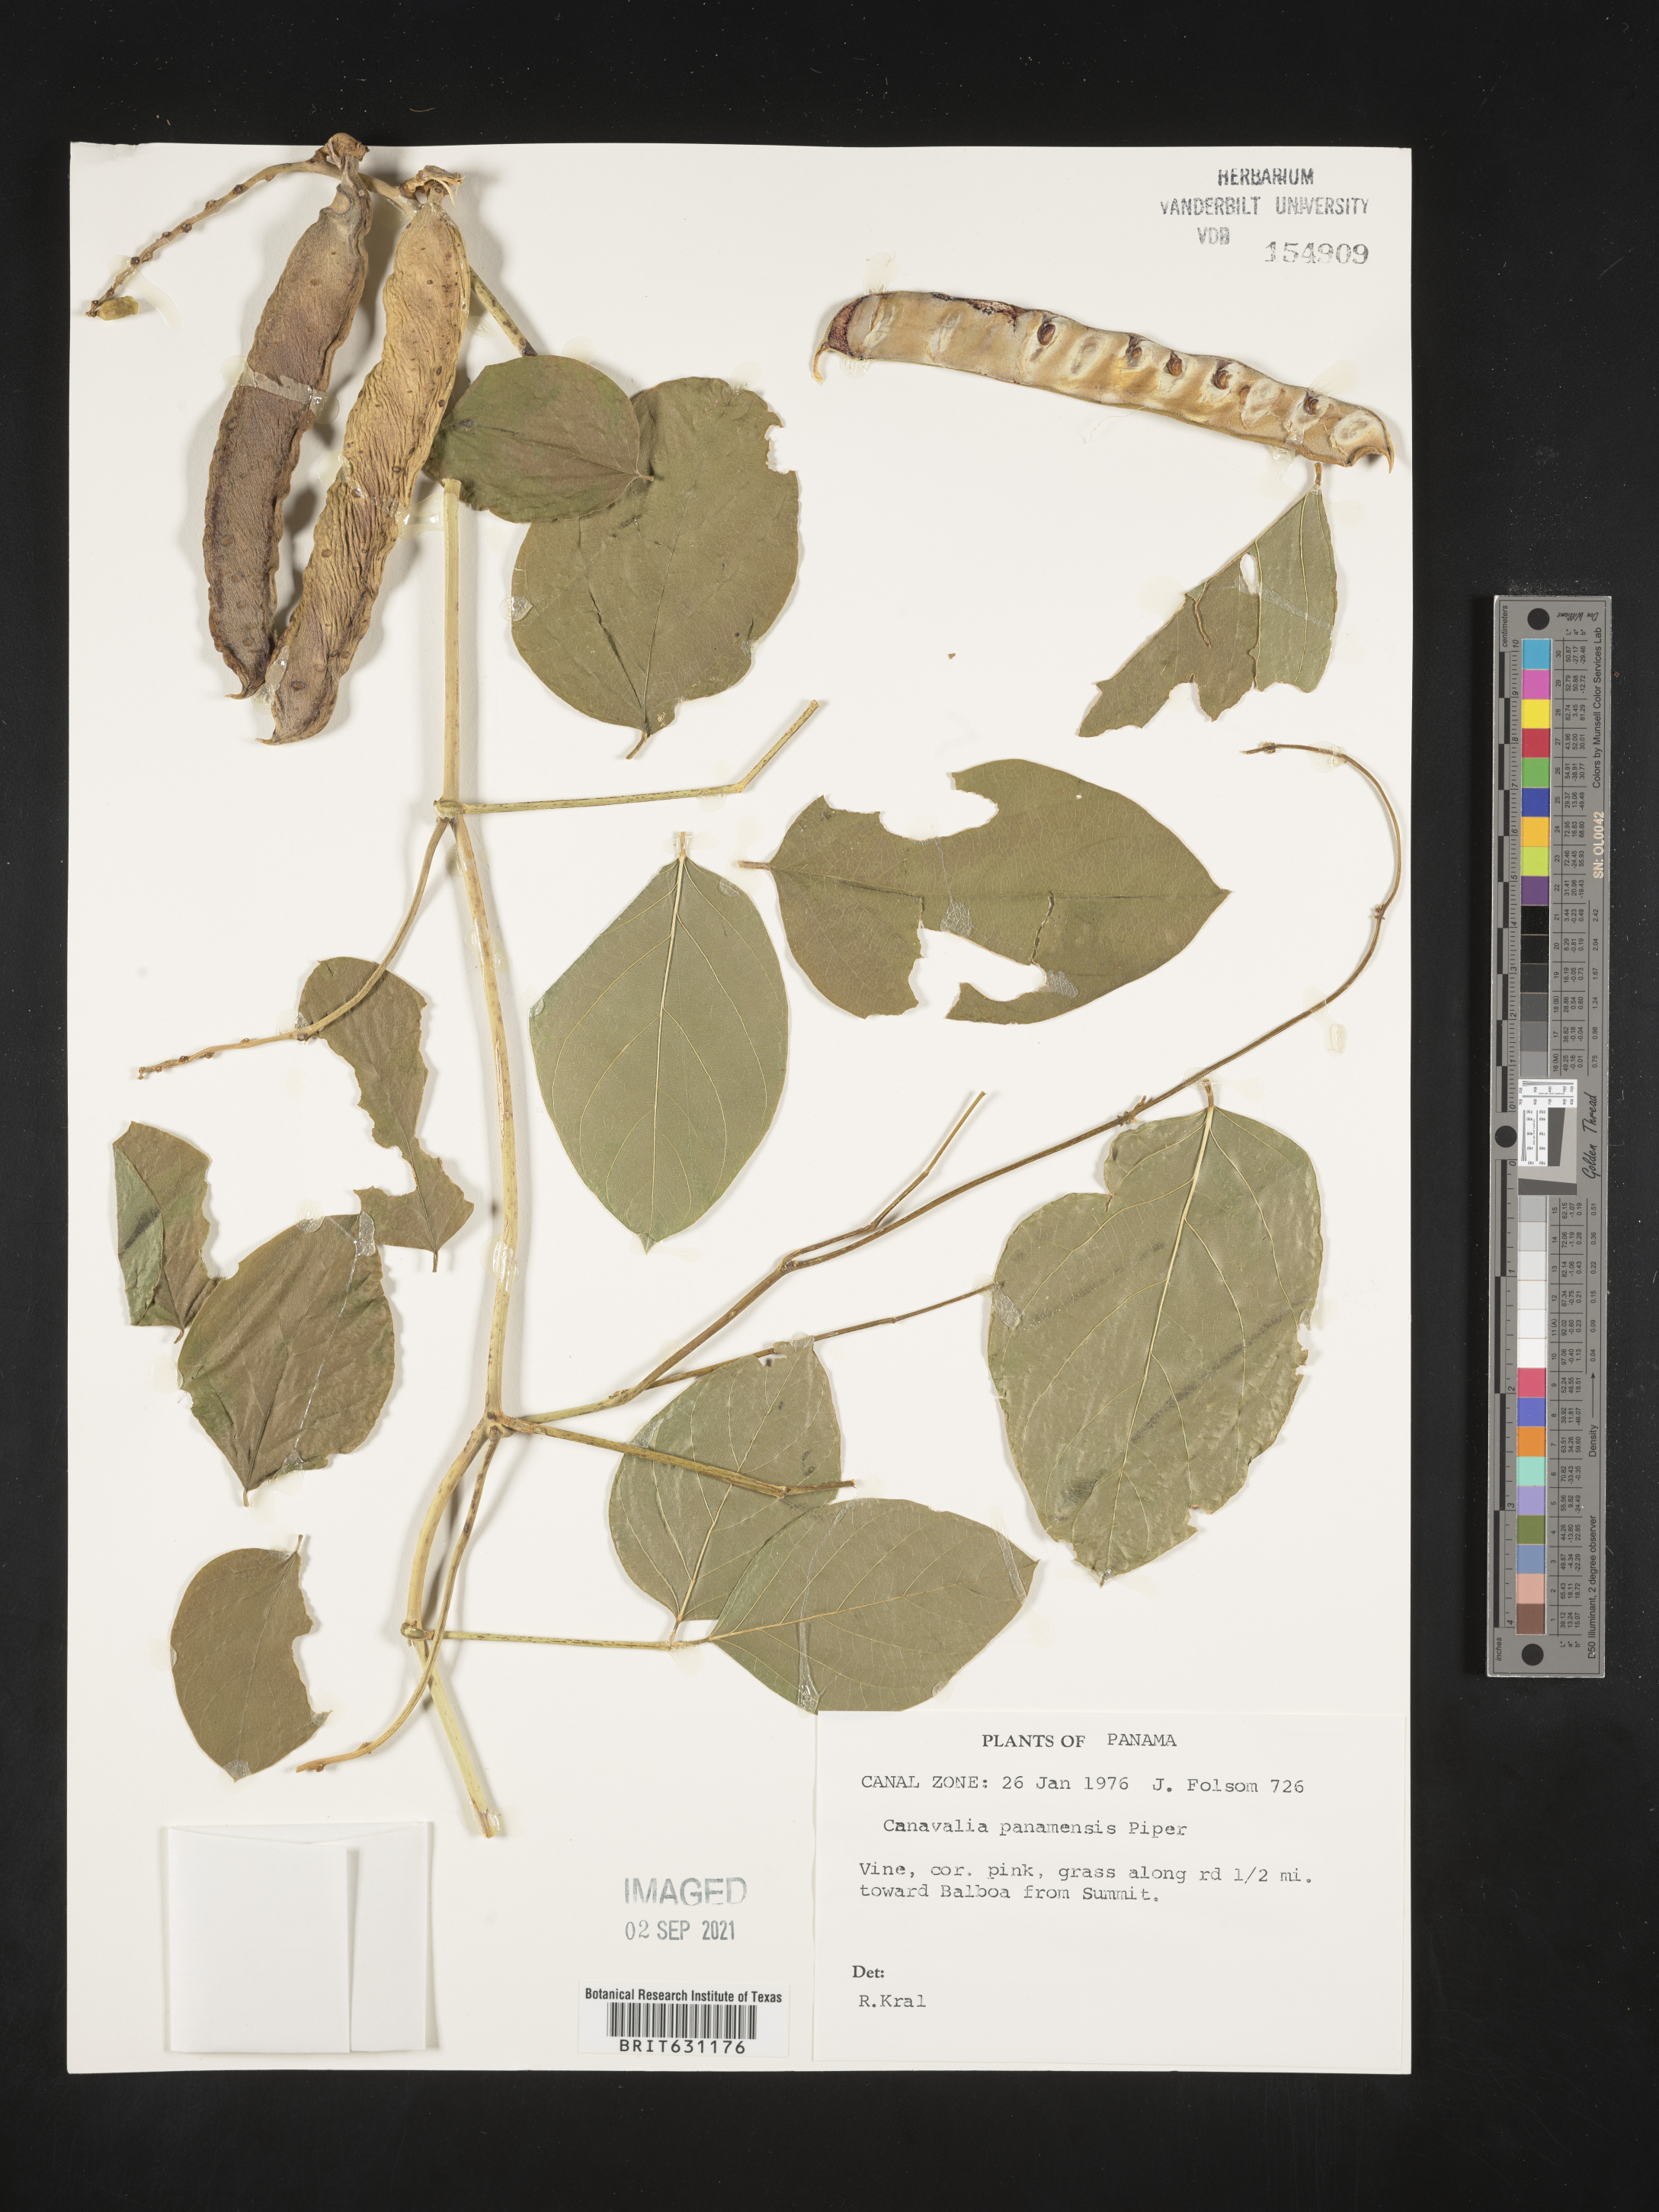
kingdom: Plantae
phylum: Tracheophyta
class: Magnoliopsida
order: Fabales
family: Fabaceae
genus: Canavalia
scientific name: Canavalia brasiliensis
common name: Barbicou-bean
